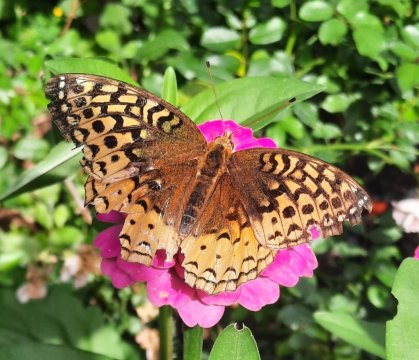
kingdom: Animalia
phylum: Arthropoda
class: Insecta
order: Lepidoptera
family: Nymphalidae
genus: Speyeria
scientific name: Speyeria cybele
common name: Great Spangled Fritillary
